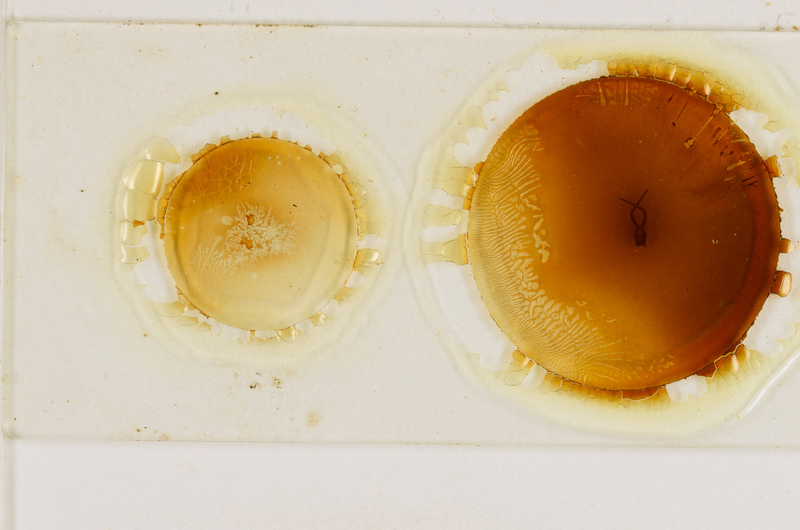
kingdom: Animalia
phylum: Arthropoda
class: Chilopoda
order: Geophilomorpha
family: Geophilidae
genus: Geophilus
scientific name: Geophilus electricus
